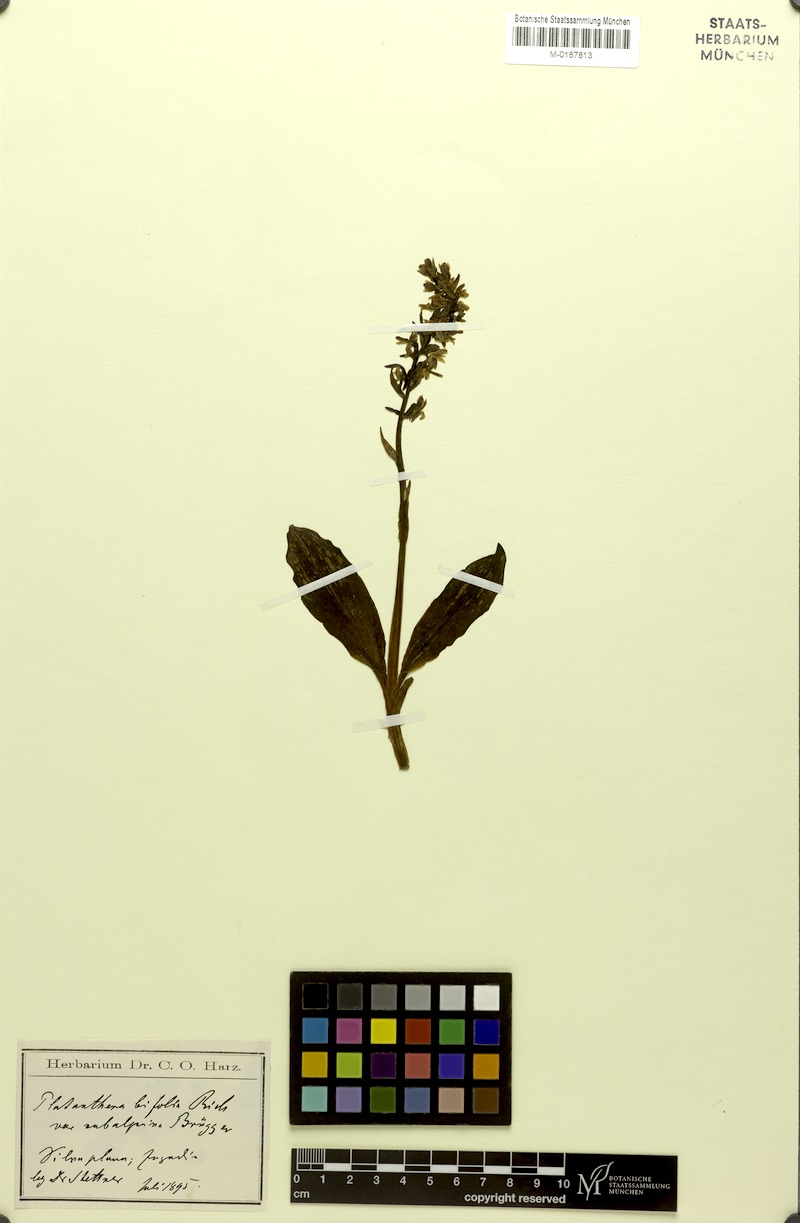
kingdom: Plantae
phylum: Tracheophyta
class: Liliopsida
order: Asparagales
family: Orchidaceae
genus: Platanthera
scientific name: Platanthera bifolia
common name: Lesser butterfly-orchid
